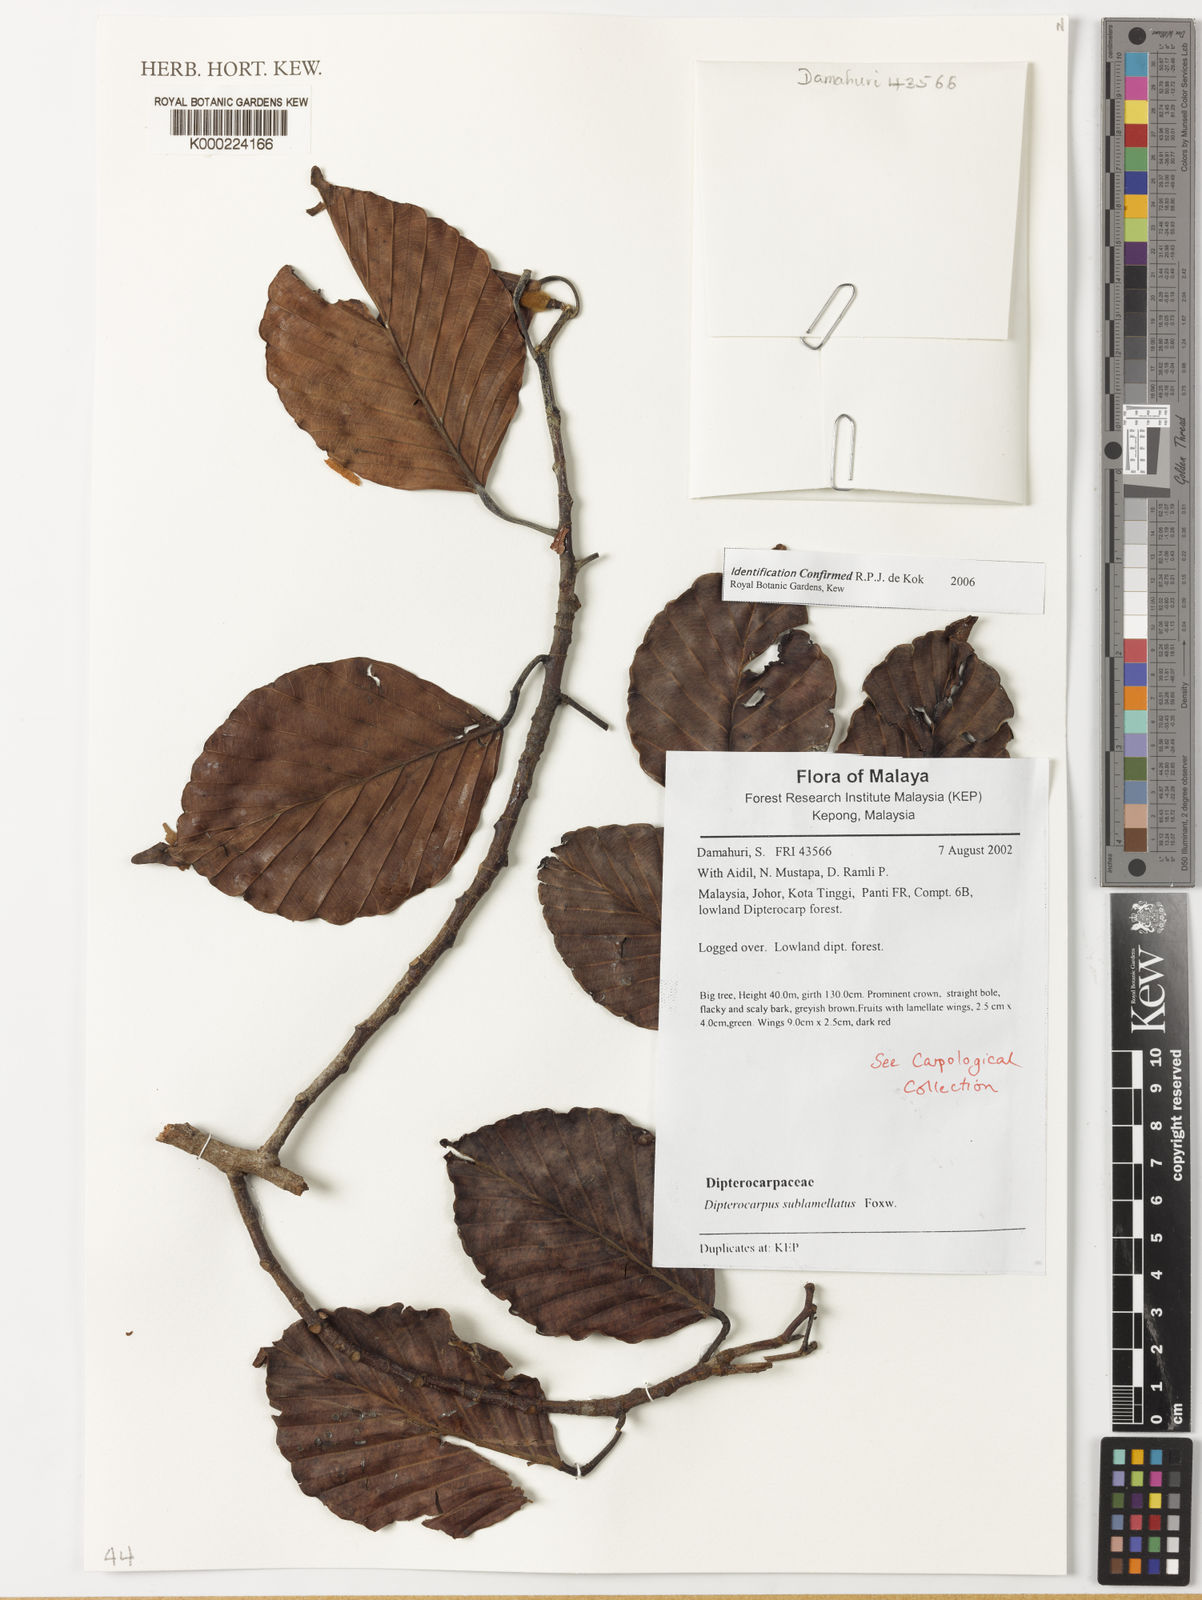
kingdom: Plantae
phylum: Tracheophyta
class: Magnoliopsida
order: Malvales
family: Dipterocarpaceae
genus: Dipterocarpus
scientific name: Dipterocarpus sublamellatus
